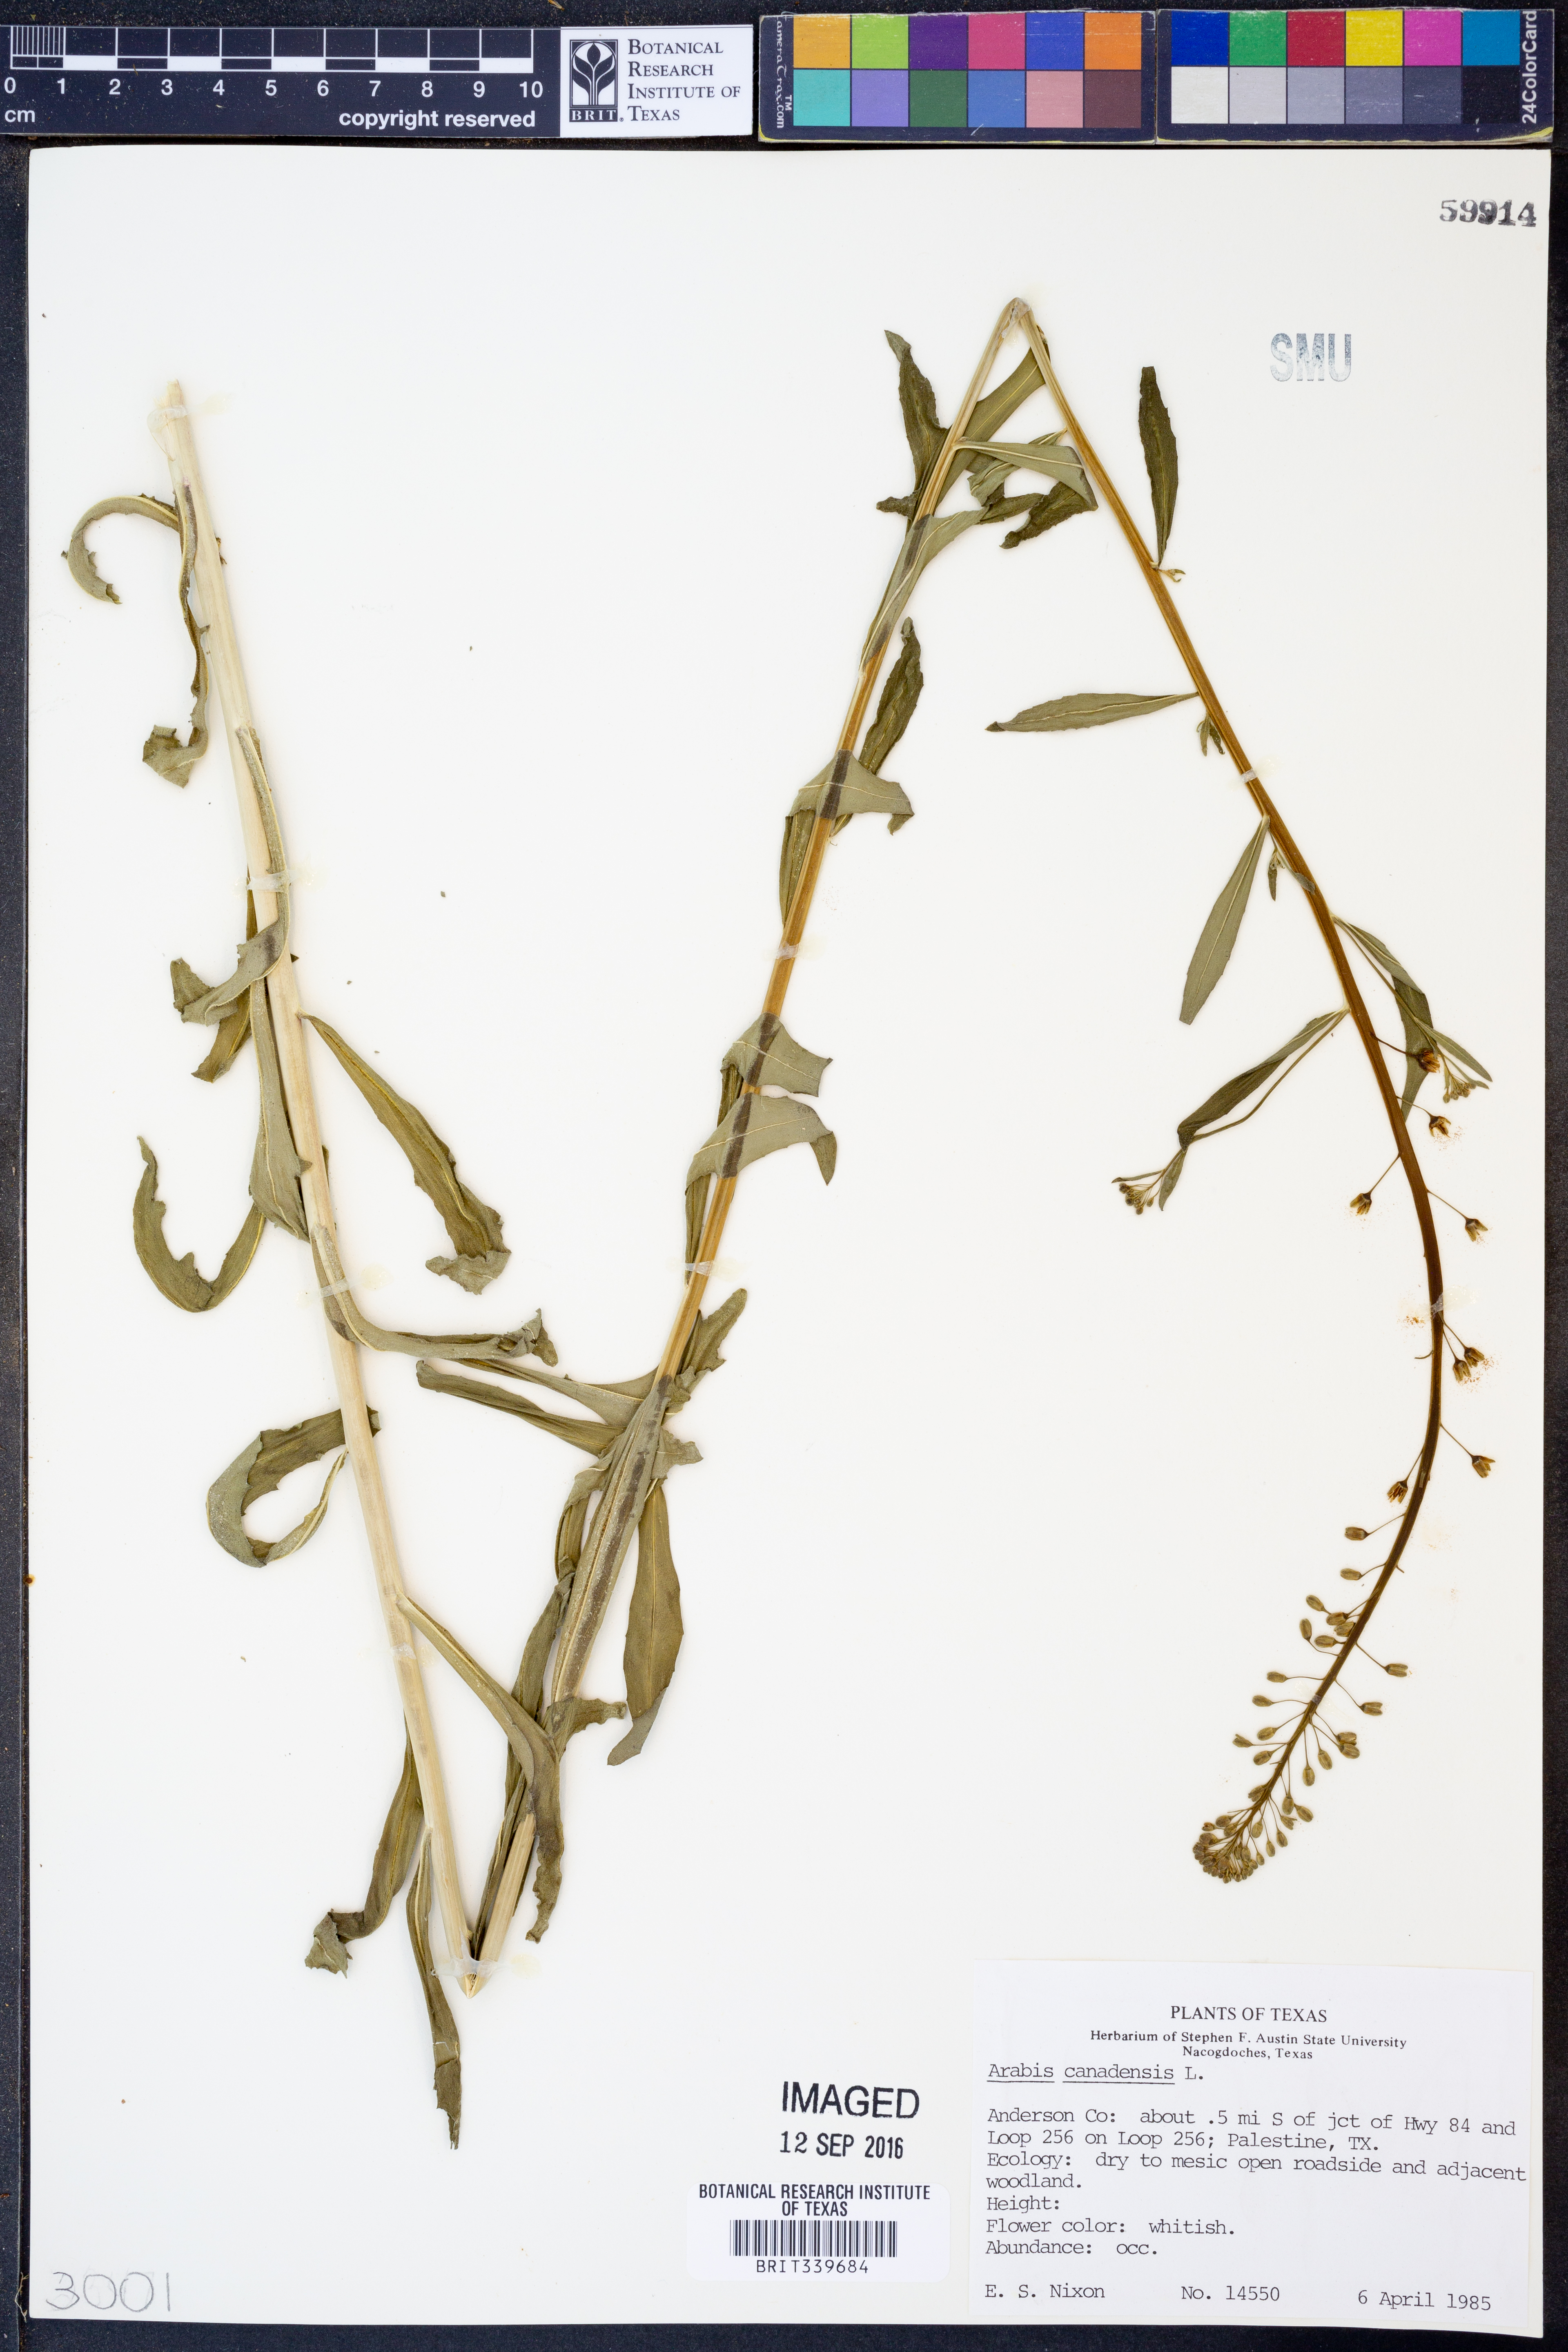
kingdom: Plantae
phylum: Tracheophyta
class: Magnoliopsida
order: Brassicales
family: Brassicaceae
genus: Borodinia
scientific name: Borodinia canadensis
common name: Sicklepod
